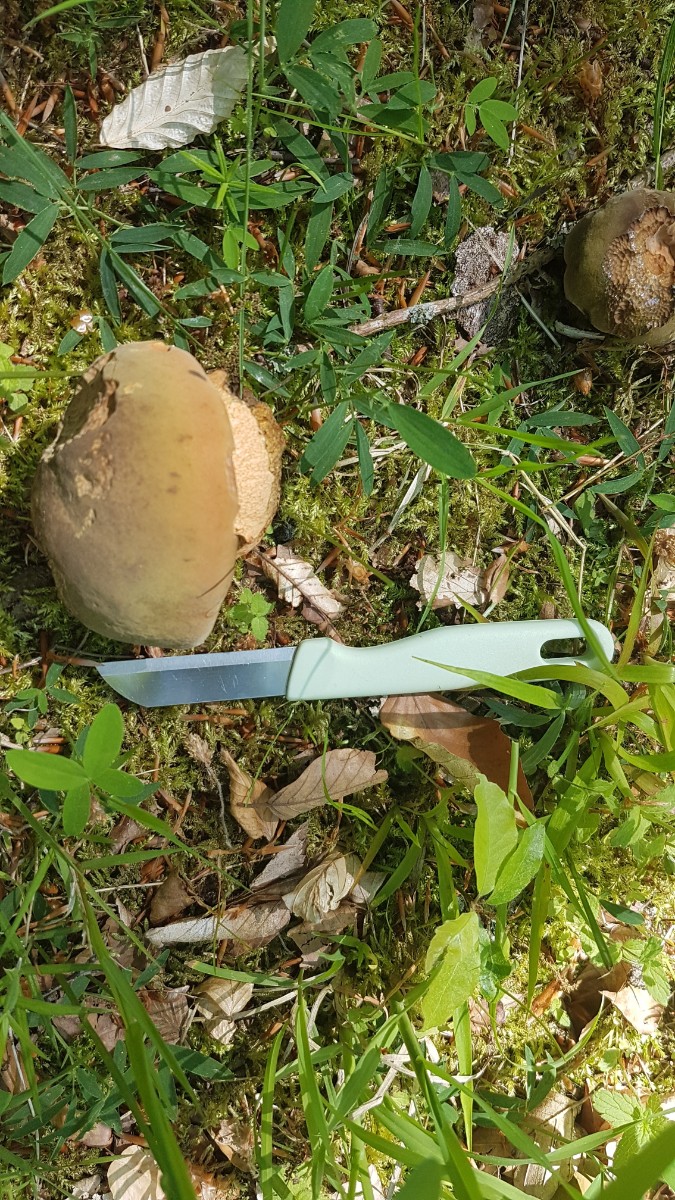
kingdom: Fungi
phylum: Basidiomycota
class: Agaricomycetes
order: Boletales
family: Boletaceae
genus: Suillellus
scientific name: Suillellus luridus
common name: netstokket indigorørhat
